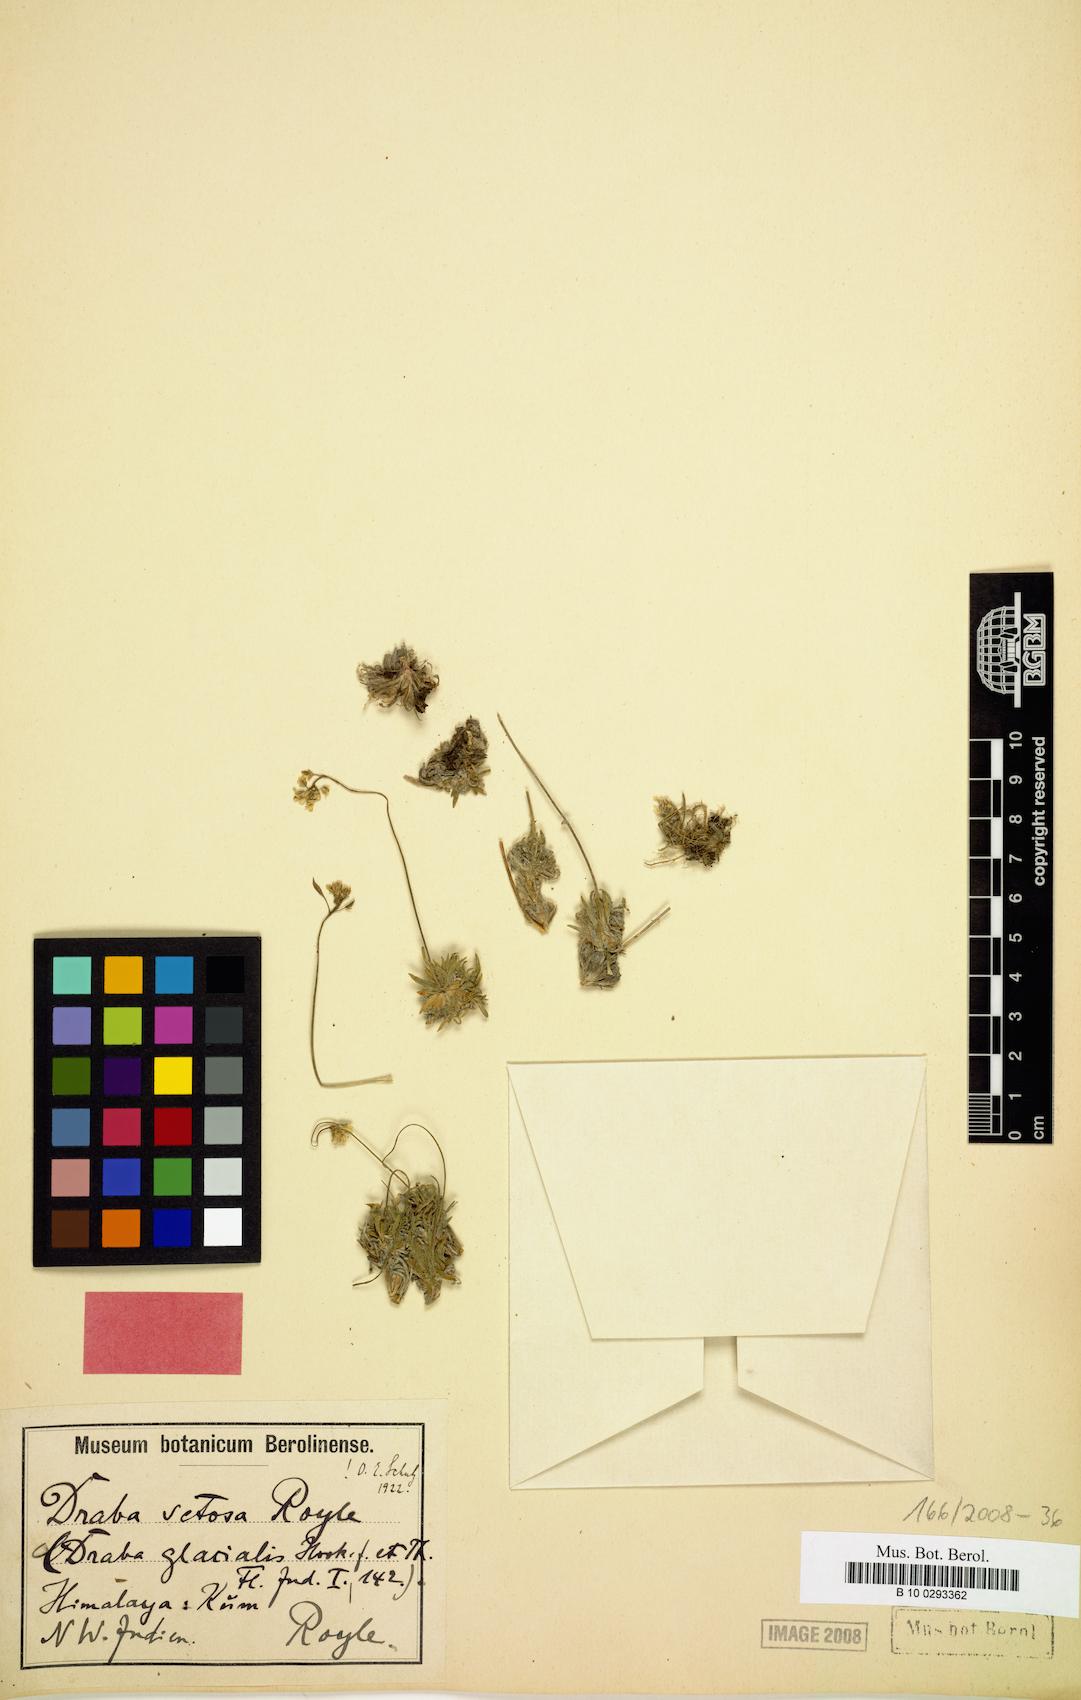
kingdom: Plantae
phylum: Tracheophyta
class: Magnoliopsida
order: Brassicales
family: Brassicaceae
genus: Draba
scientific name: Draba setosa
